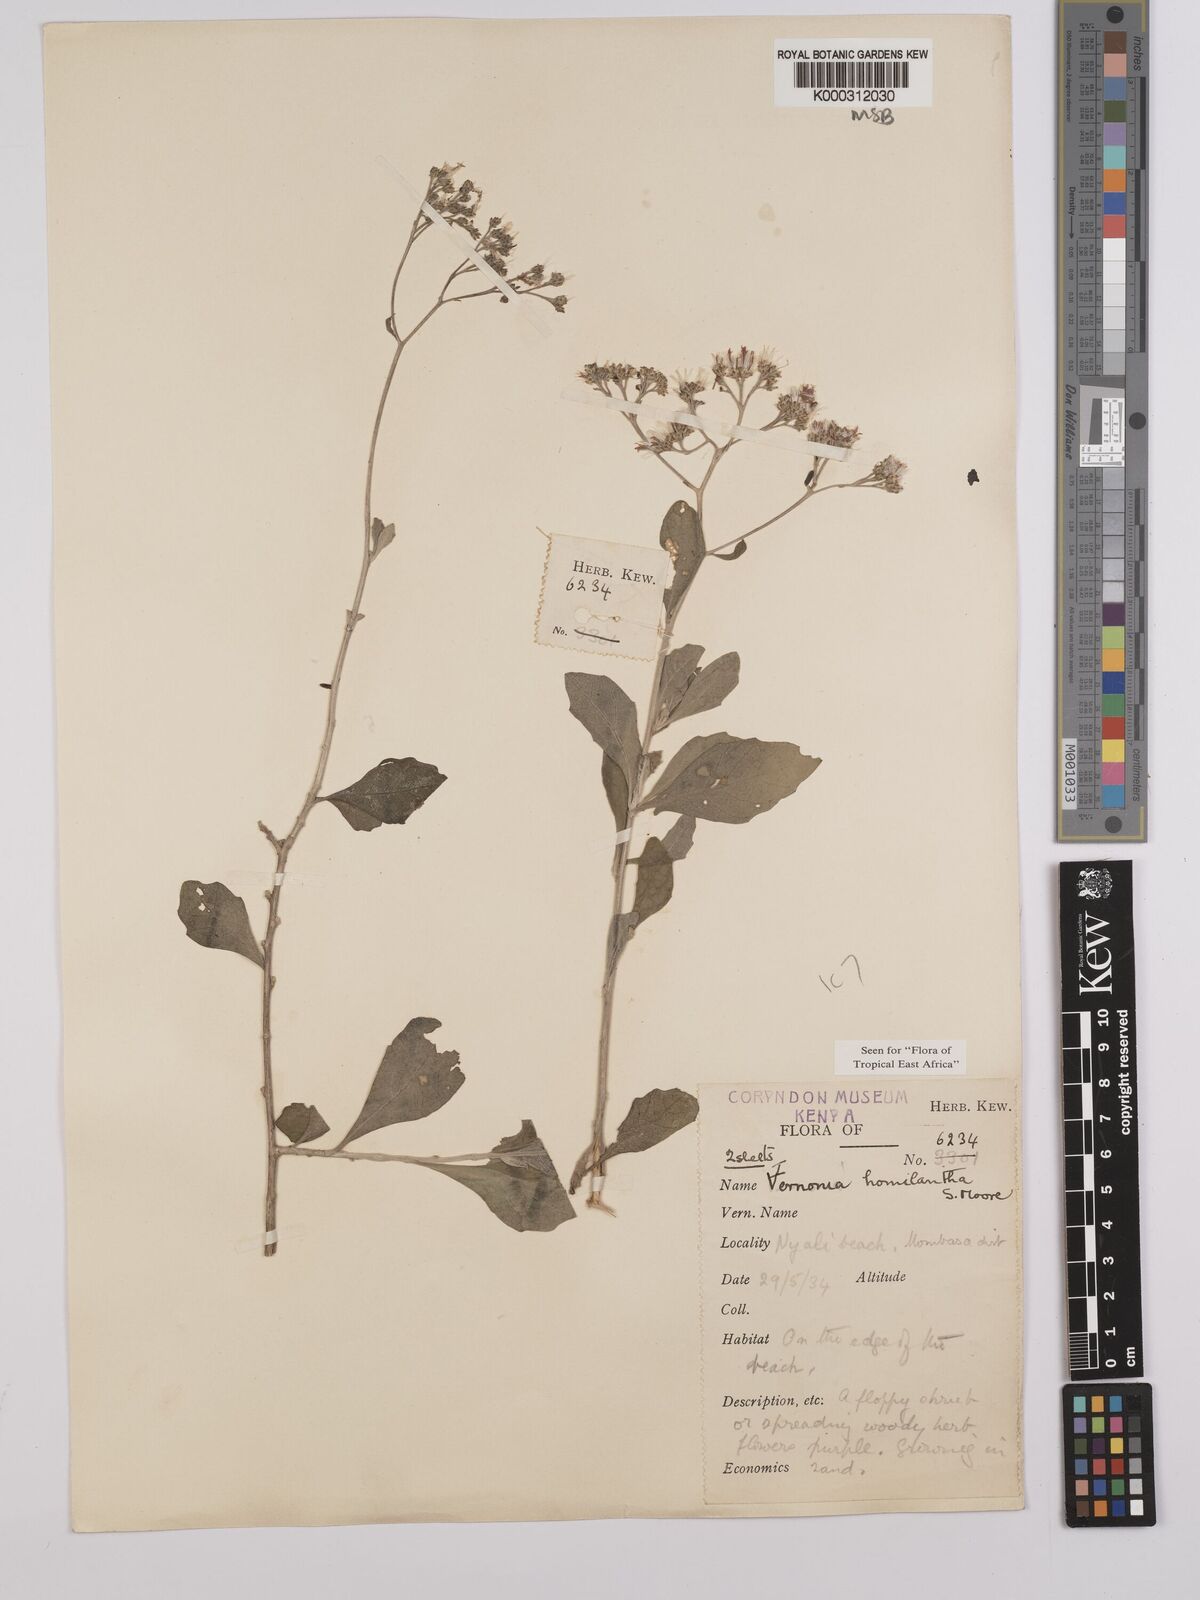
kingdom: Plantae
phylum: Tracheophyta
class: Magnoliopsida
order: Asterales
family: Asteraceae
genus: Orbivestus
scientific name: Orbivestus homilanthus
